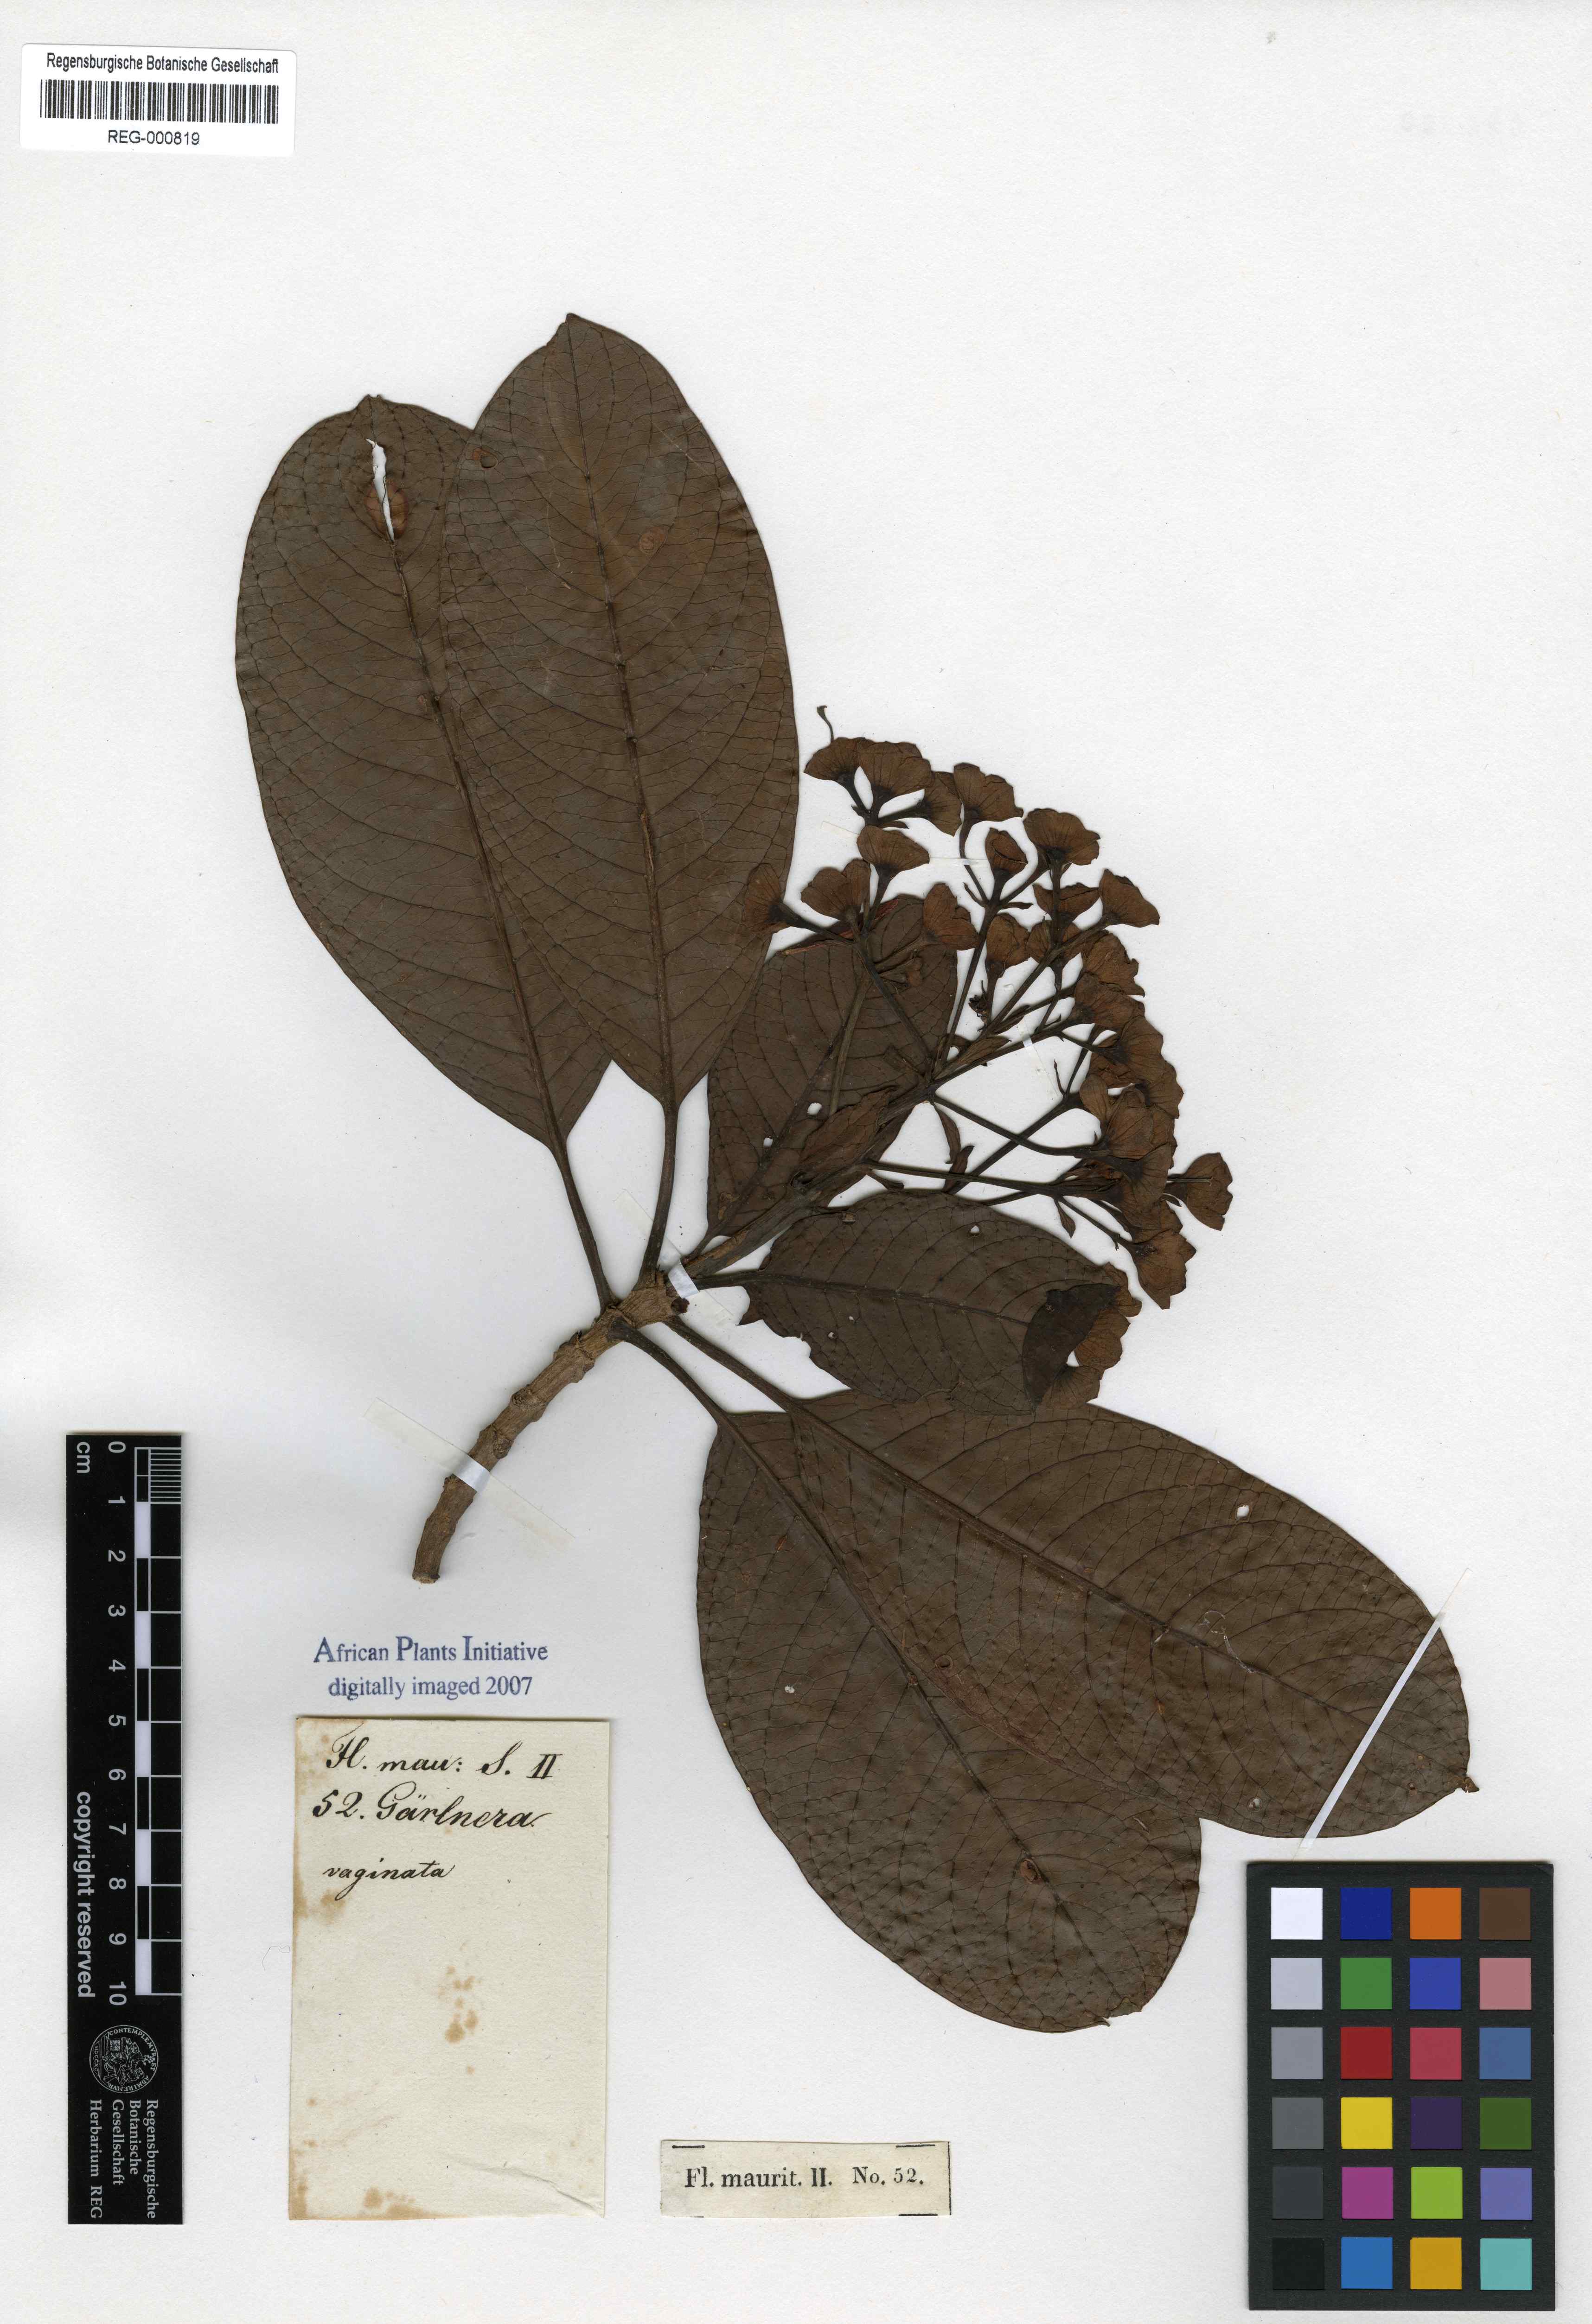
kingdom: Plantae
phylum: Tracheophyta
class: Magnoliopsida
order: Gentianales
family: Rubiaceae
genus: Gaertnera
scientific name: Gaertnera vaginata
